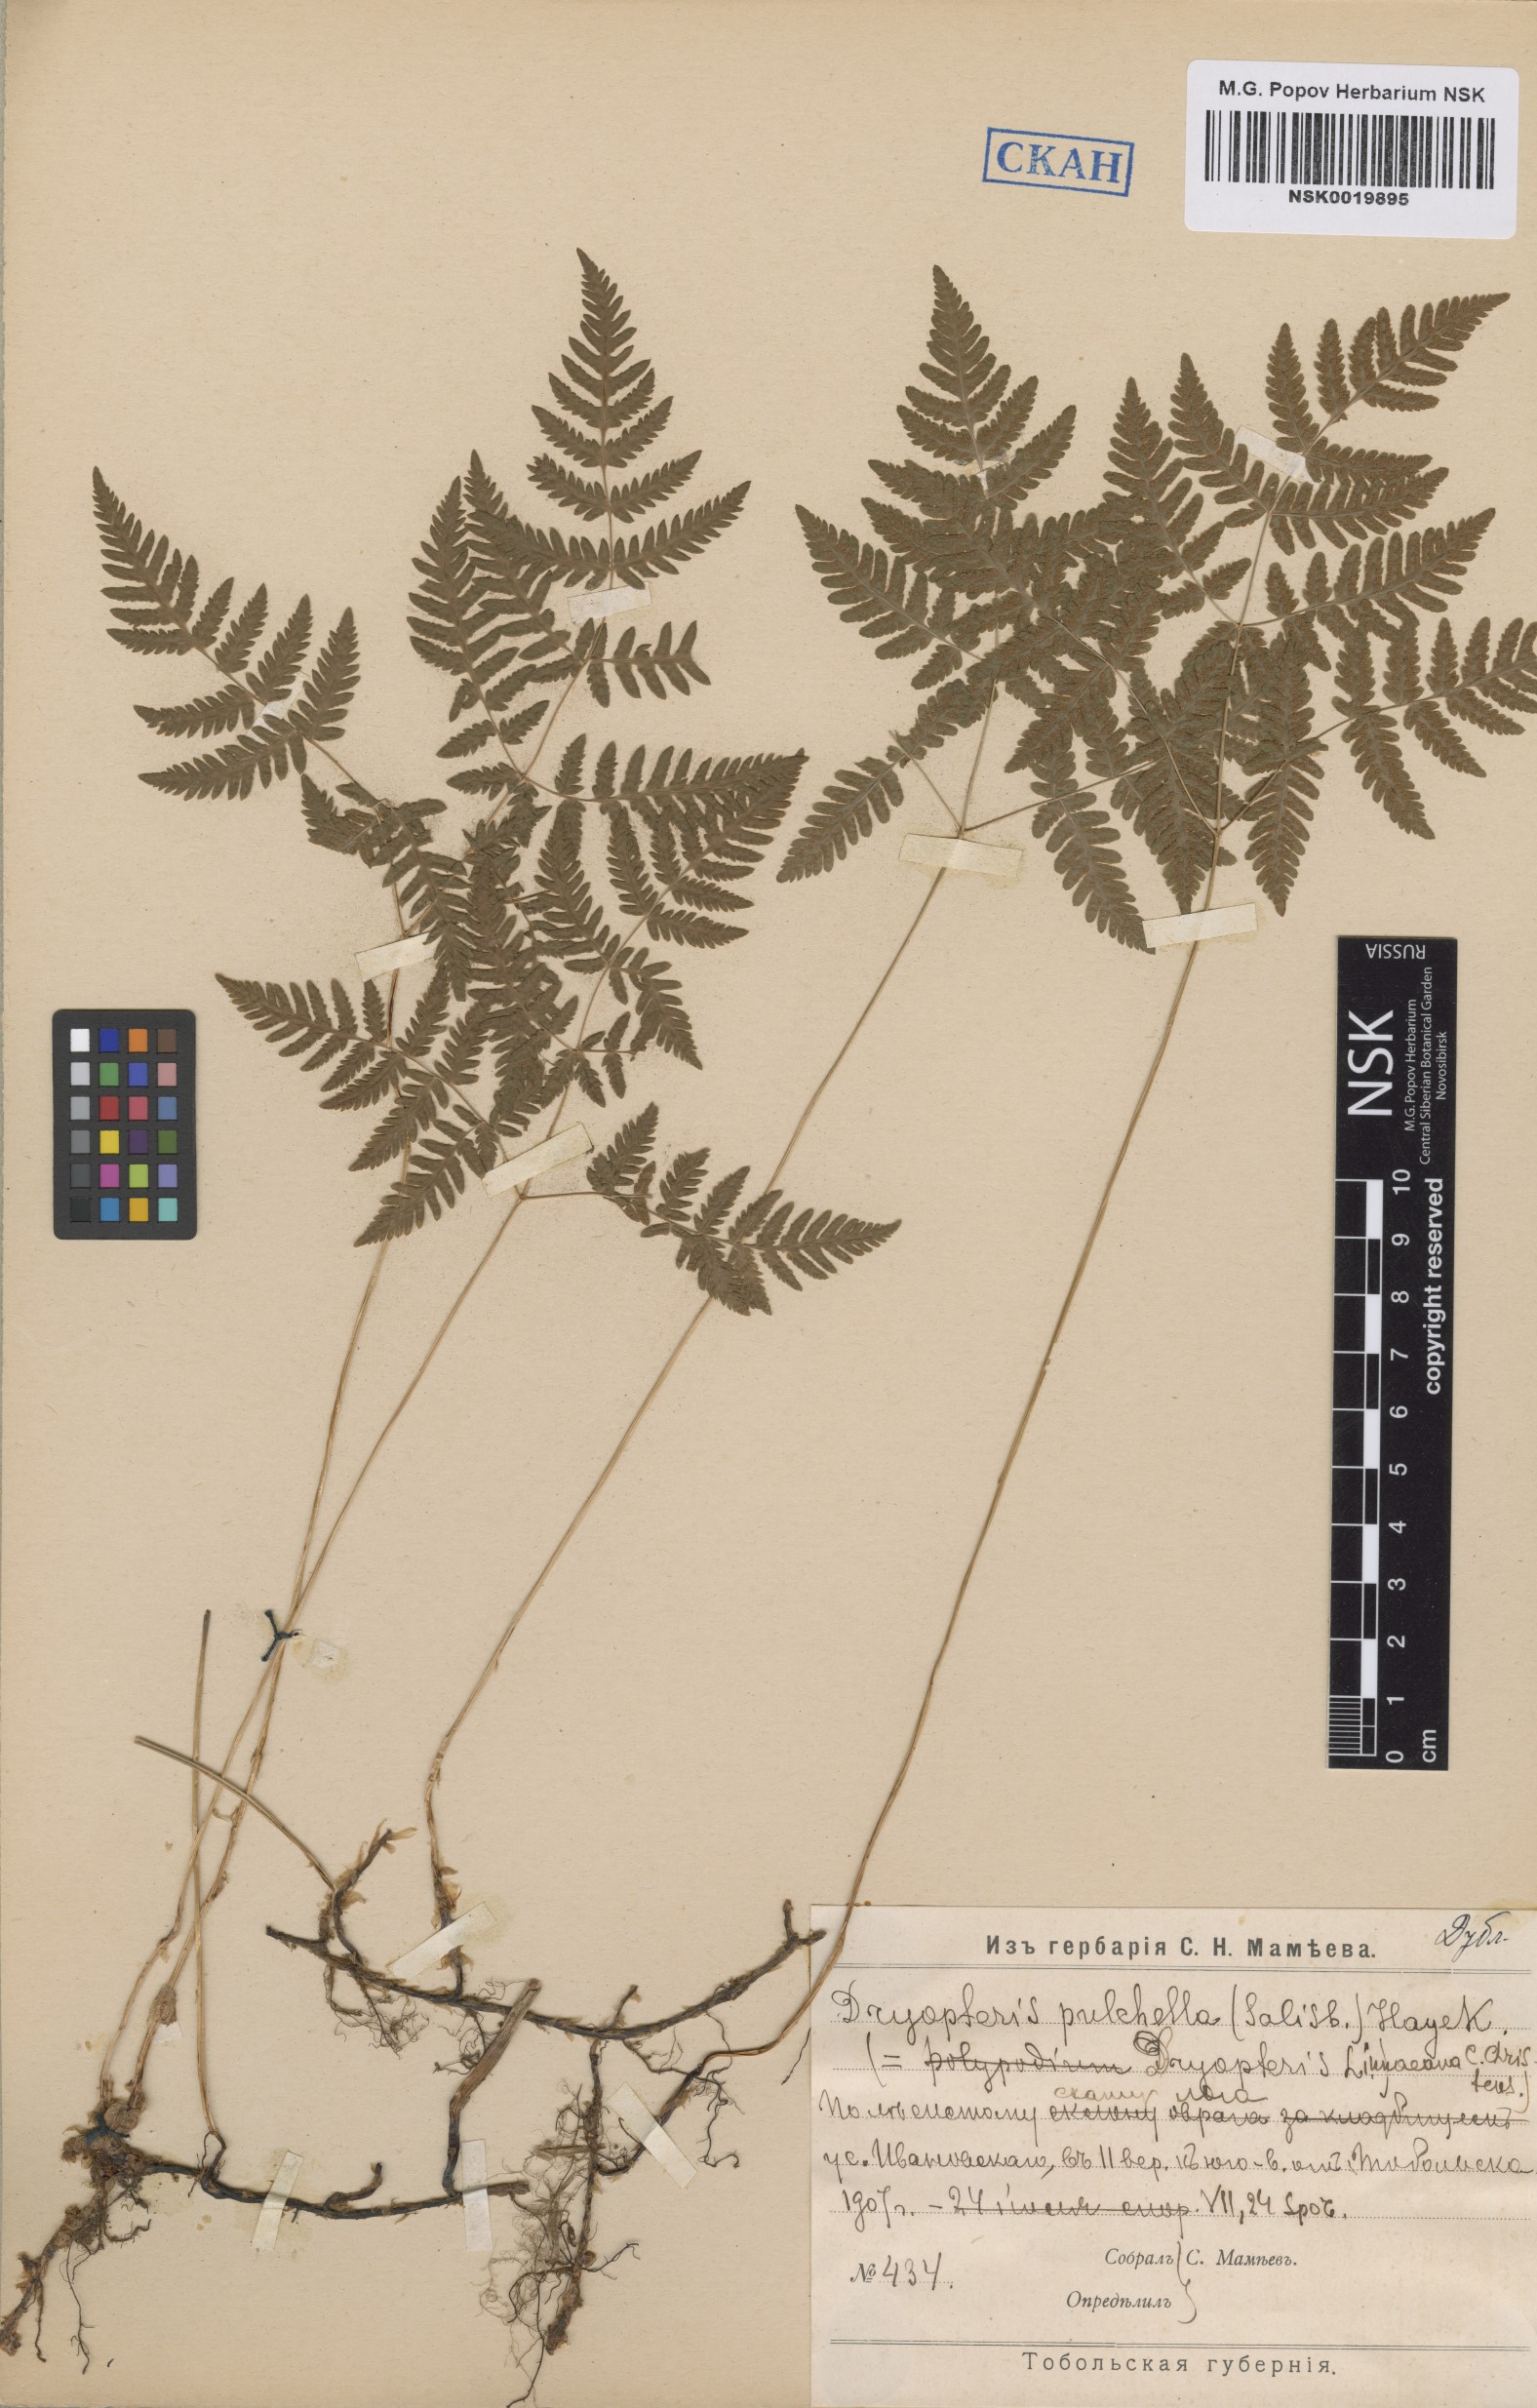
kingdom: Plantae
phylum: Tracheophyta
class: Polypodiopsida
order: Polypodiales
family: Cystopteridaceae
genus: Gymnocarpium
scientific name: Gymnocarpium dryopteris
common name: Oak fern
